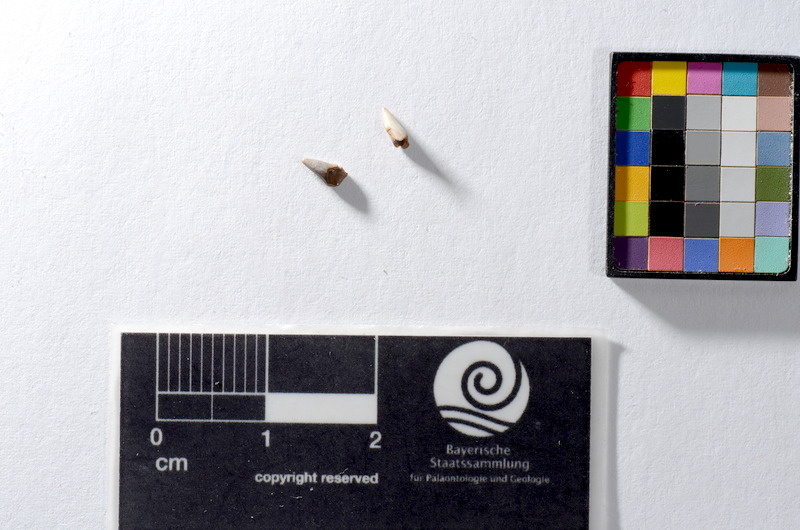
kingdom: Animalia
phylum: Chordata
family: Saurichthyidae
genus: Saurichthys
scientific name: Saurichthys acuminatus
